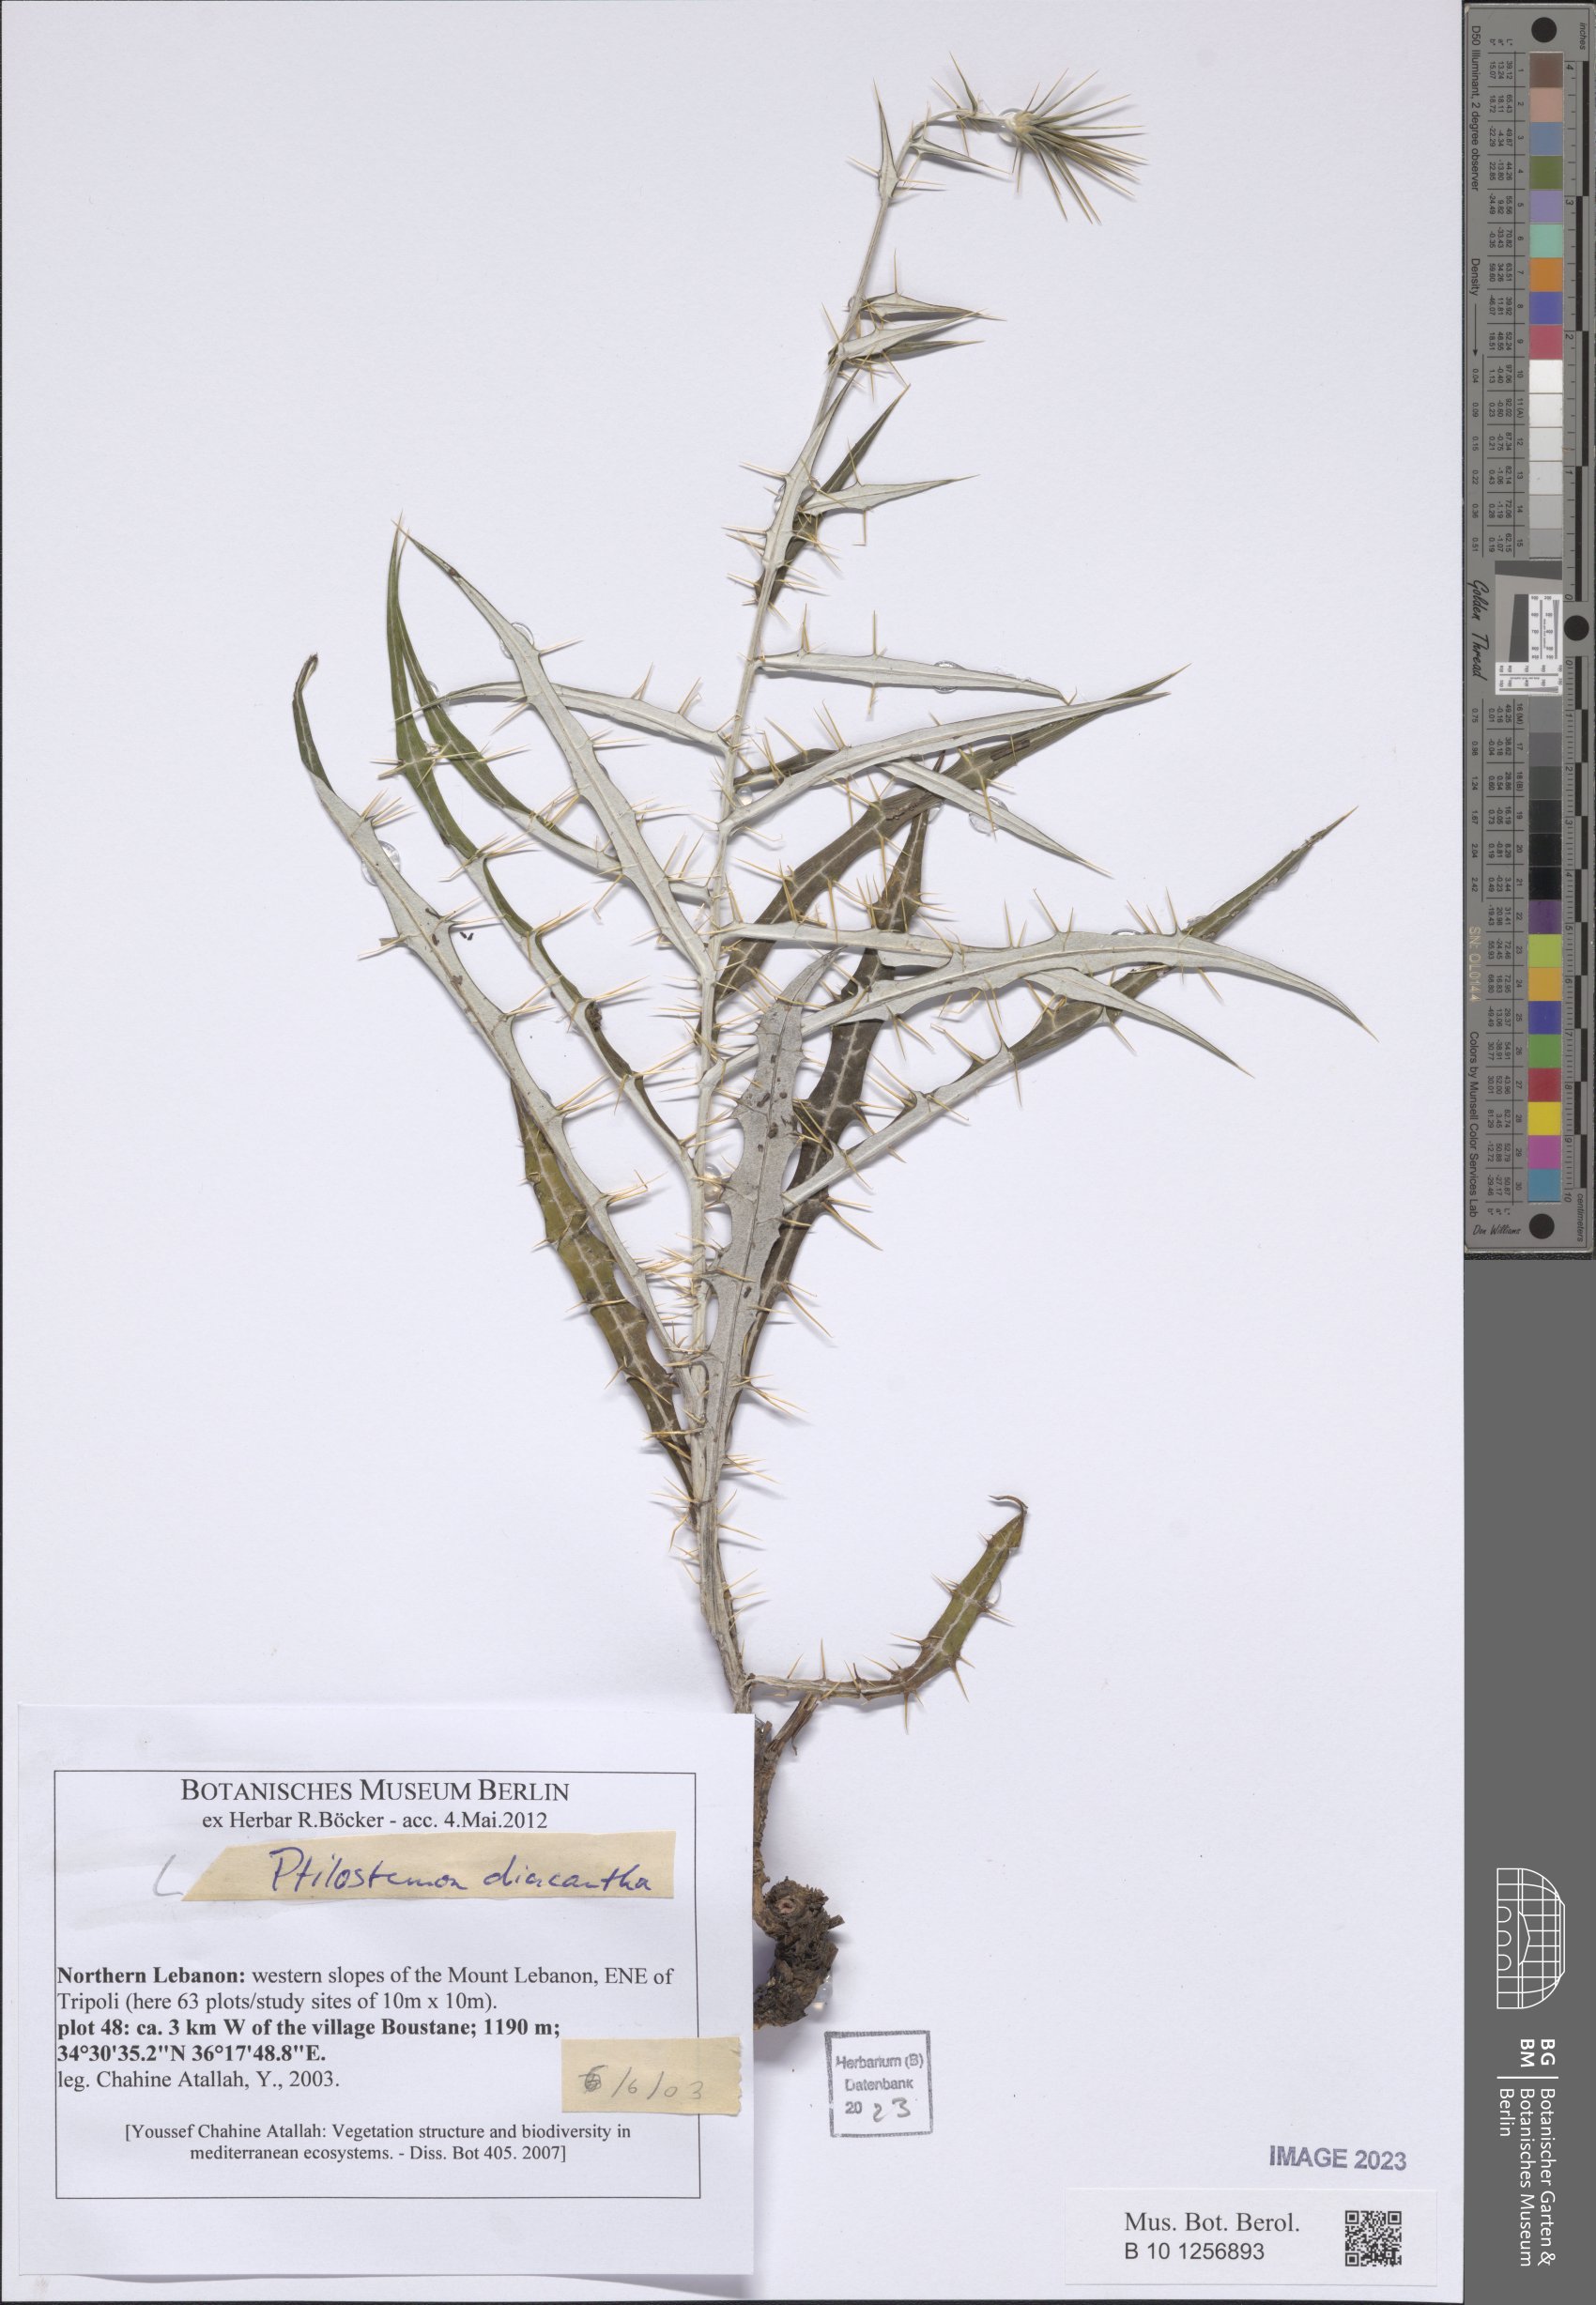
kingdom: Plantae
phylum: Tracheophyta
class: Magnoliopsida
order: Asterales
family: Asteraceae
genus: Ptilostemon
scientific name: Ptilostemon diacanthus
